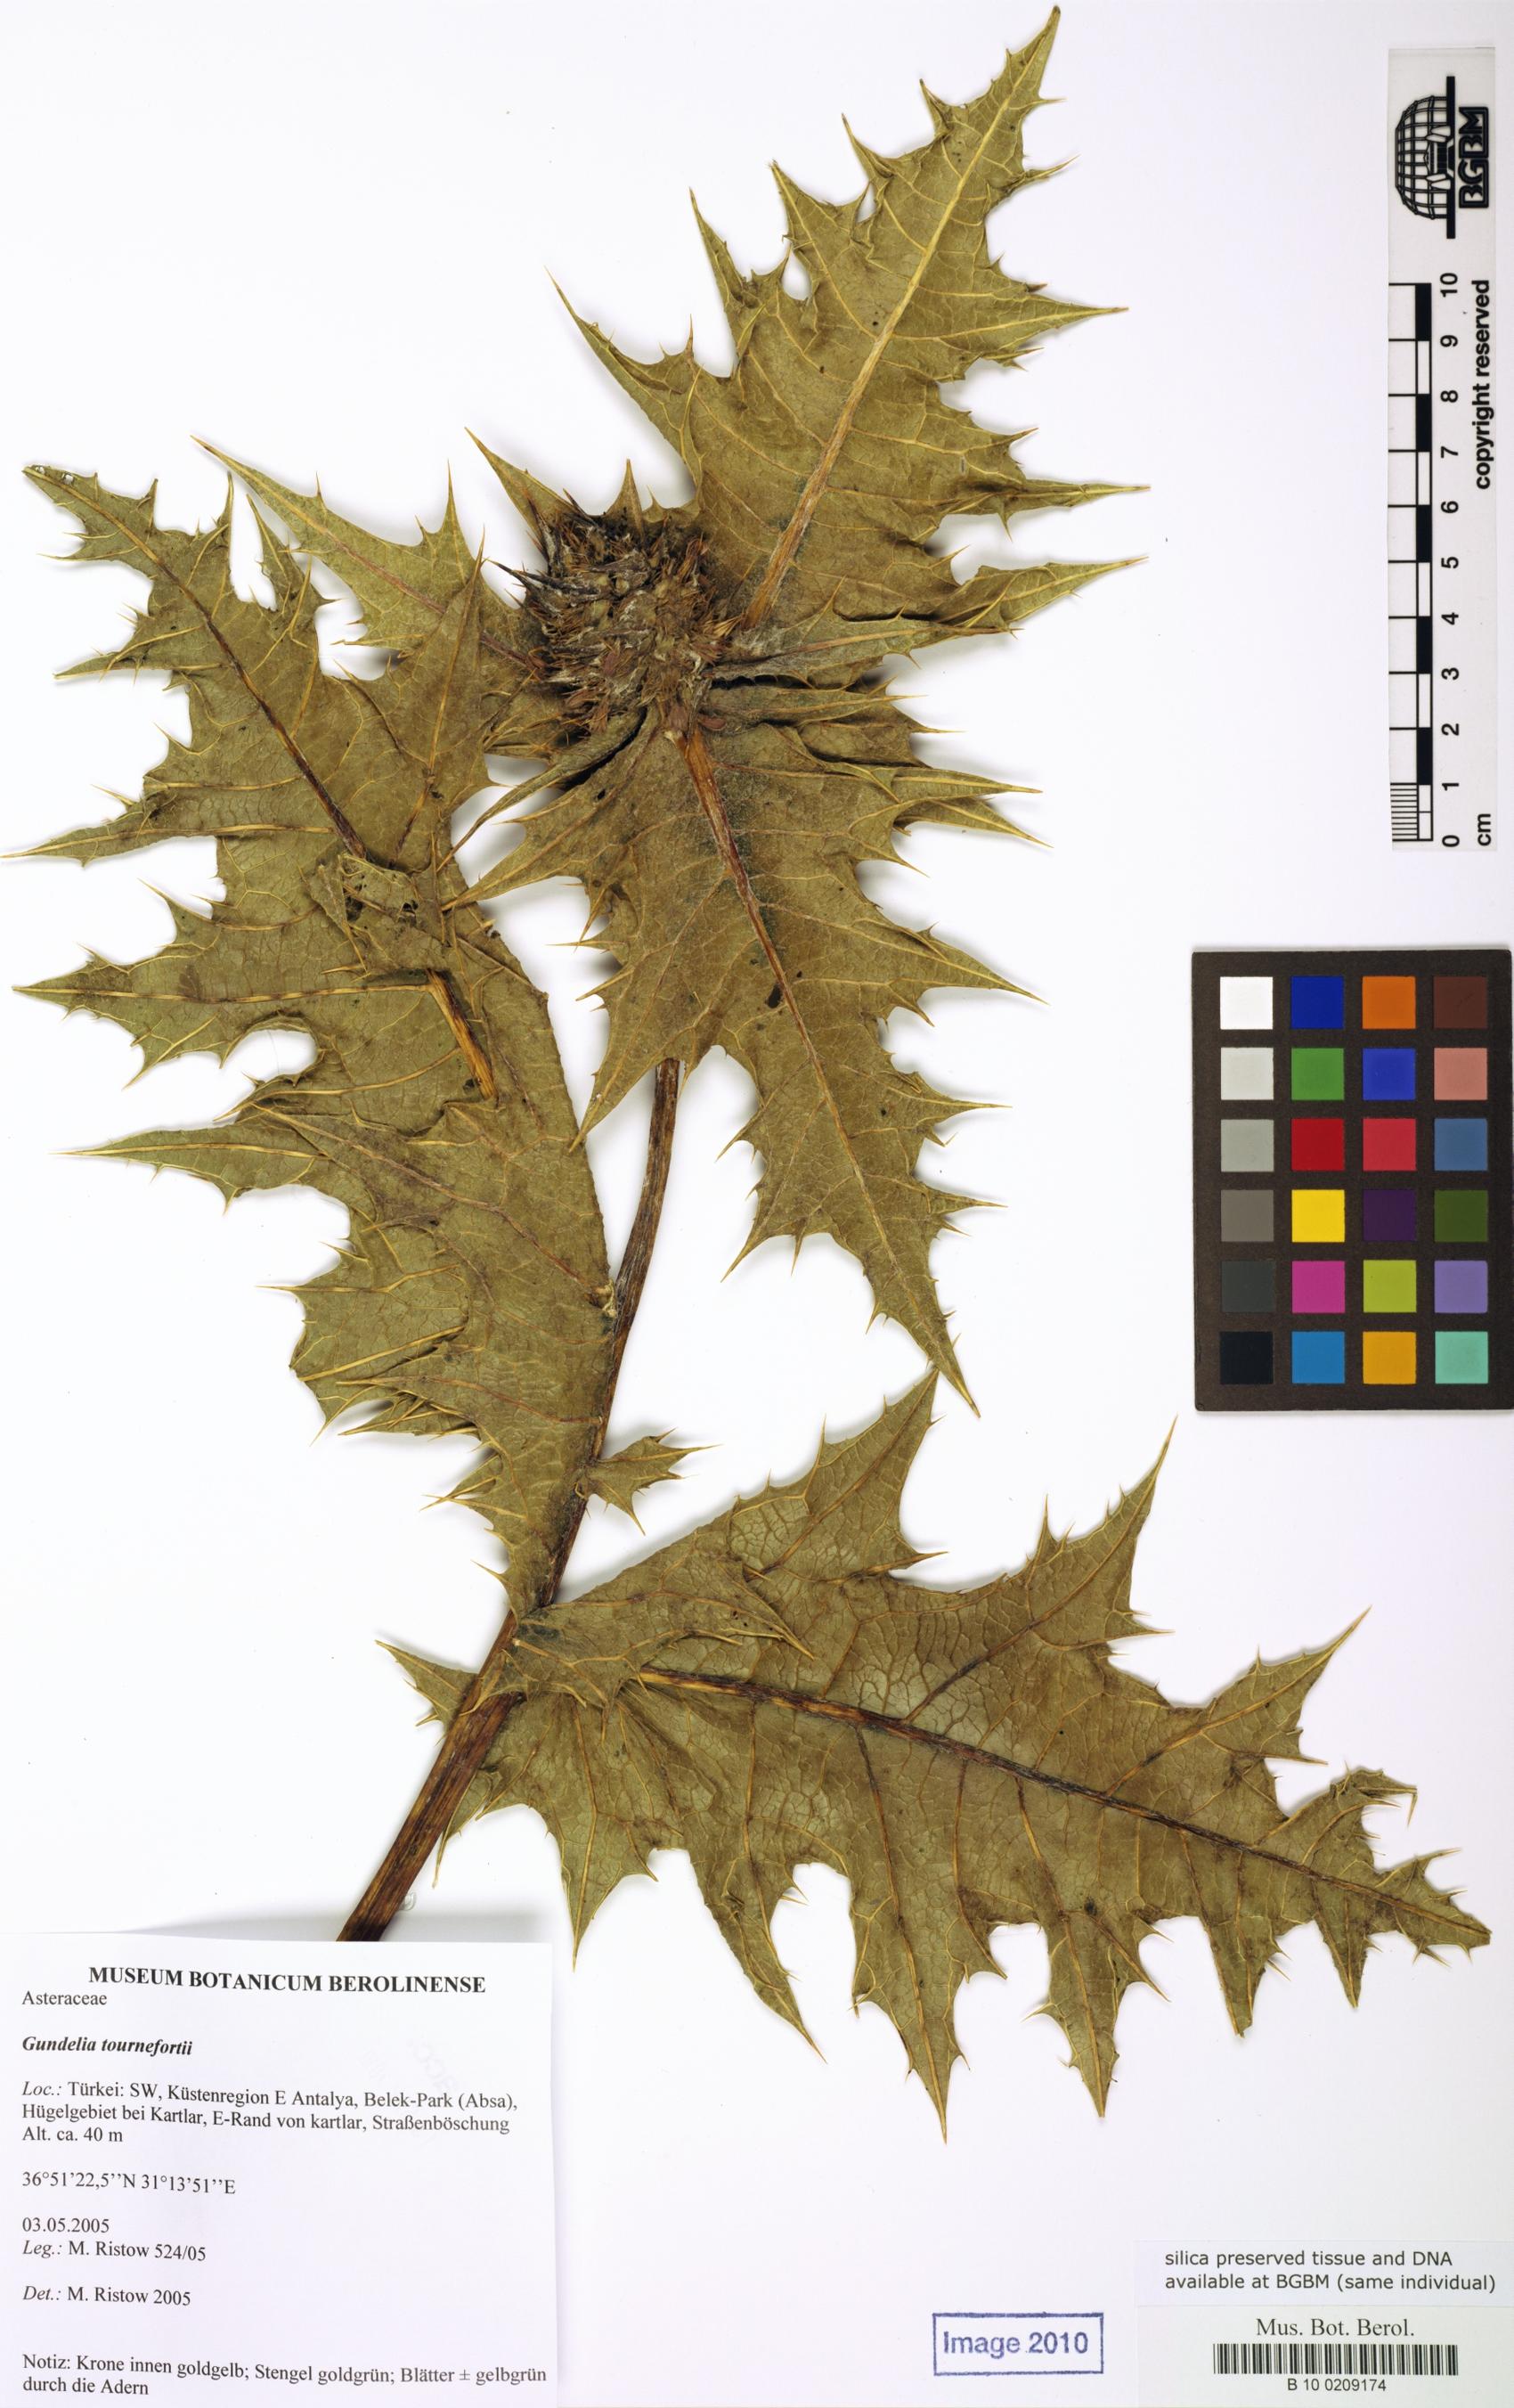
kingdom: Plantae
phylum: Tracheophyta
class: Magnoliopsida
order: Asterales
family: Asteraceae
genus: Gundelia
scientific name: Gundelia tournefortii
